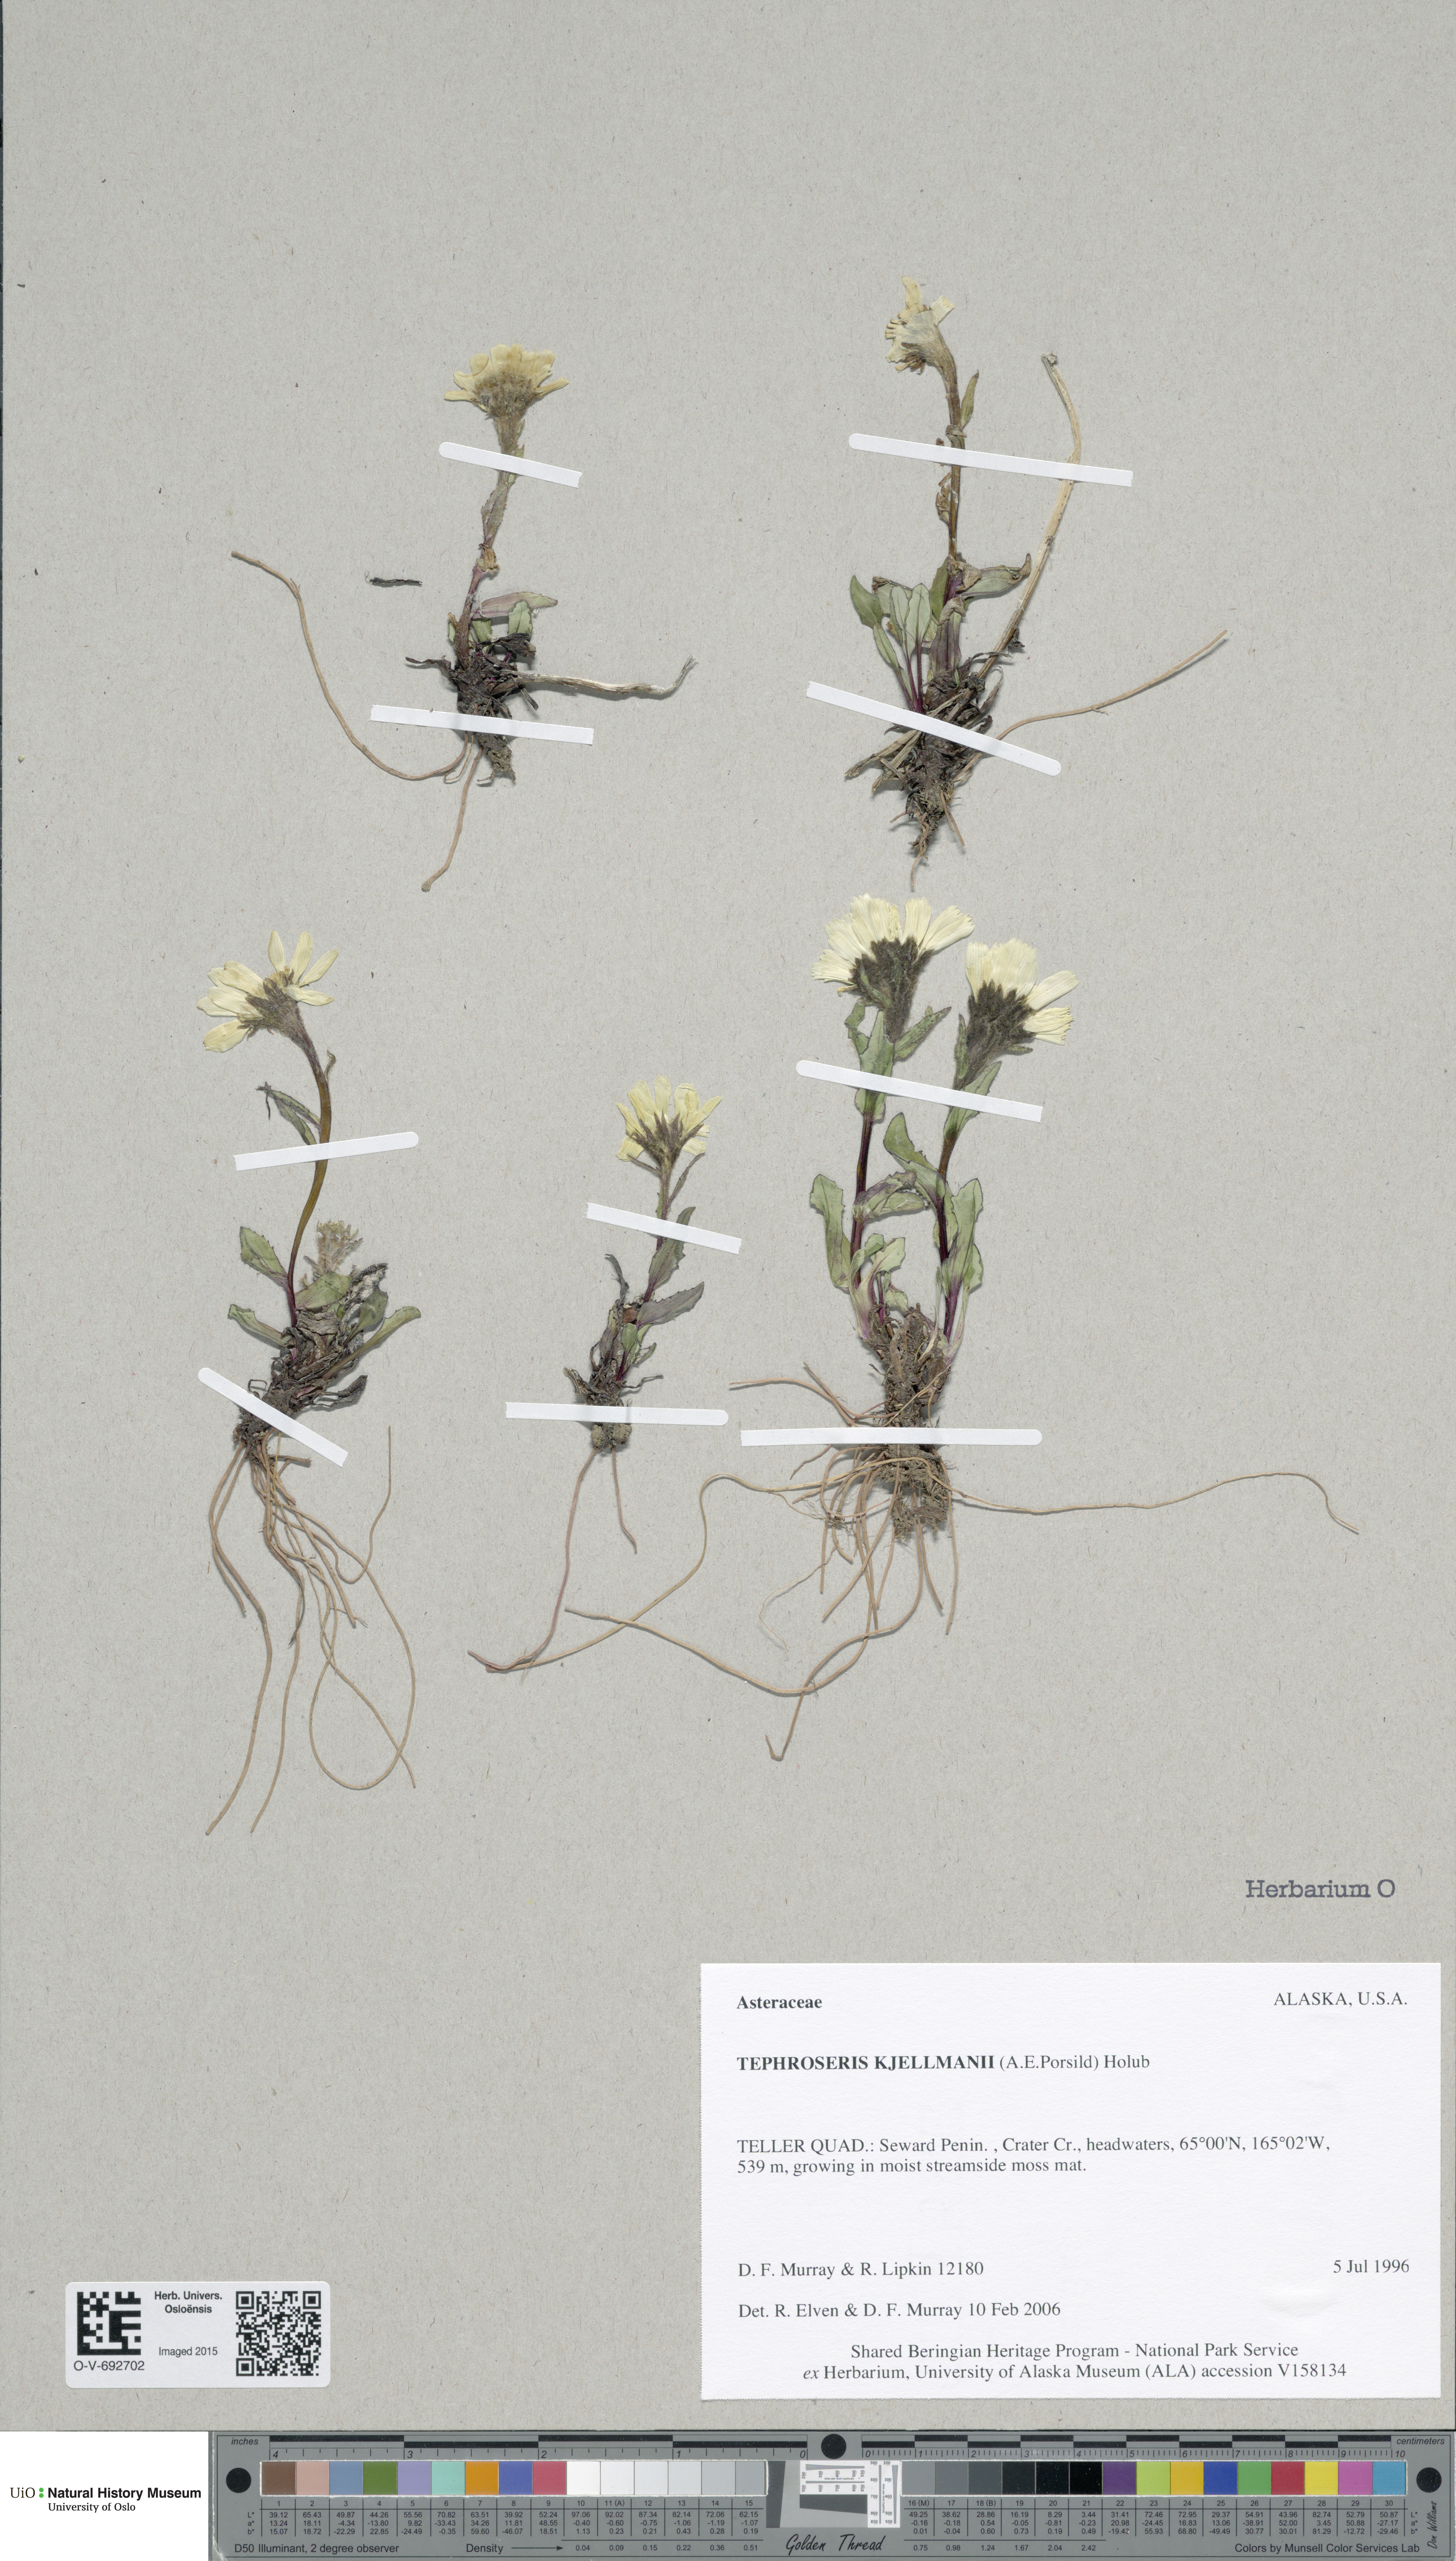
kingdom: Plantae
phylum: Tracheophyta
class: Magnoliopsida
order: Asterales
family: Asteraceae
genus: Tephroseris
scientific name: Tephroseris kjellmanii
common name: Kjellman's groundsel
